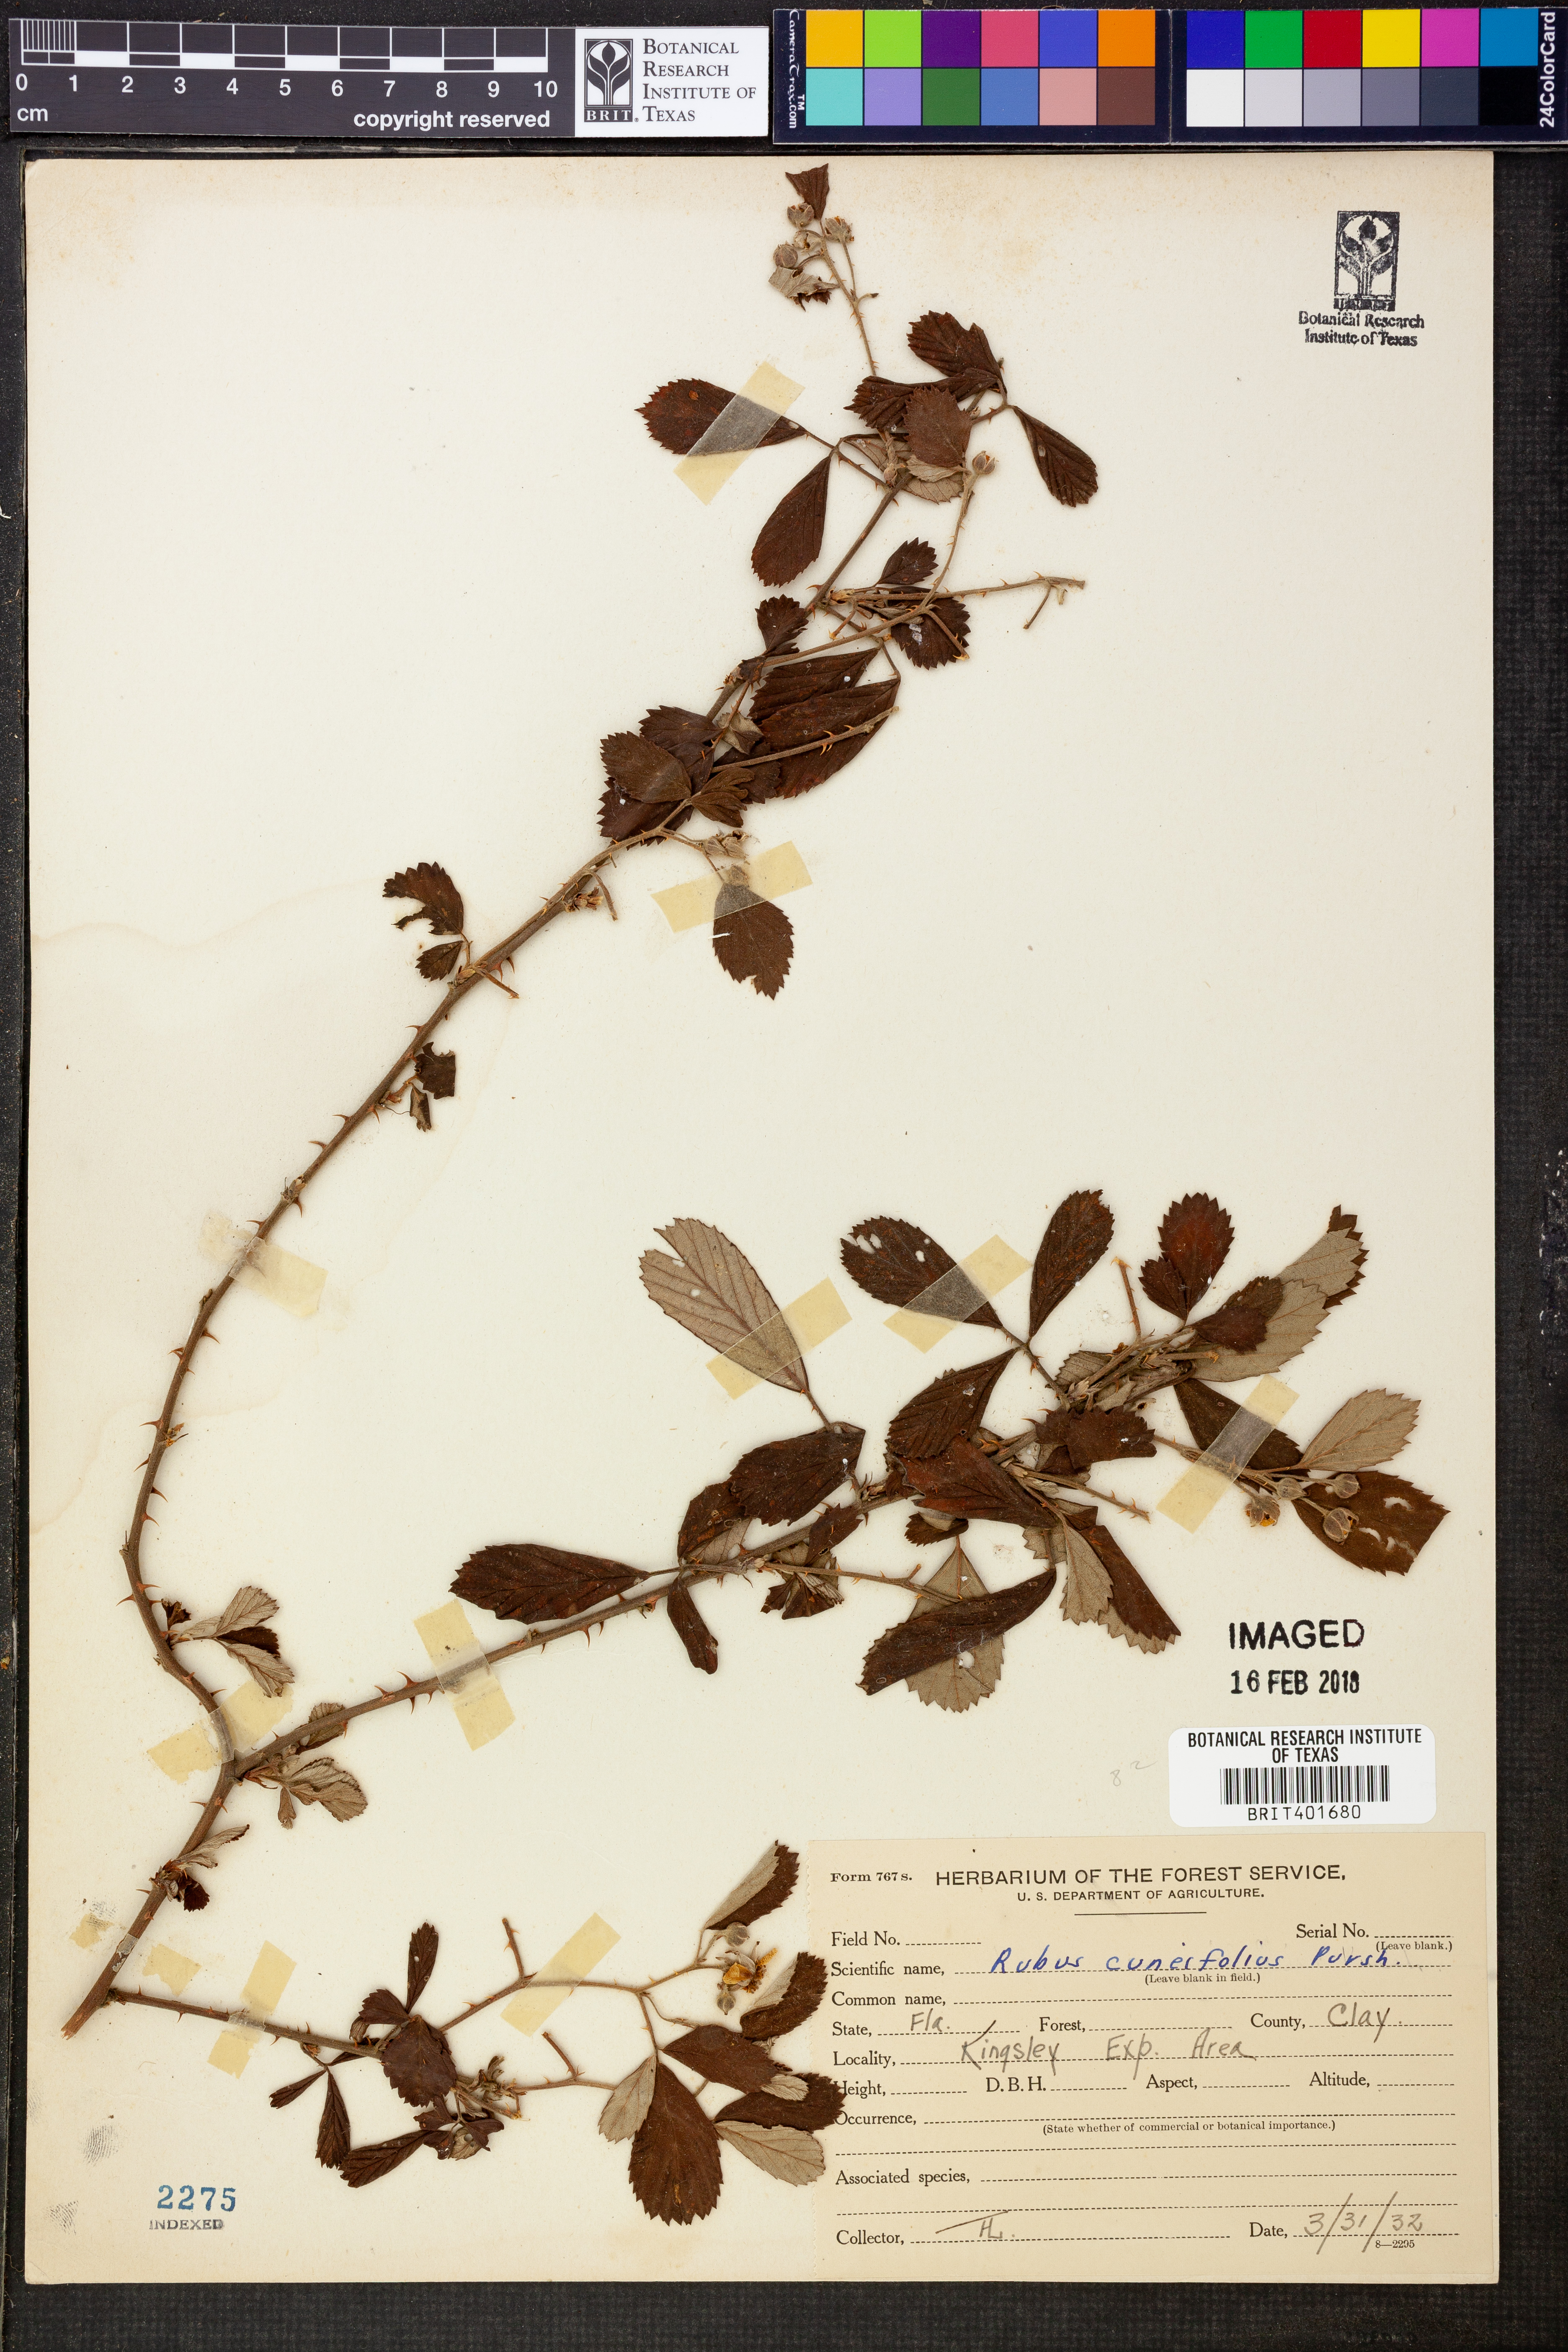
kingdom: Plantae
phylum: Tracheophyta
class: Magnoliopsida
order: Rosales
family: Rosaceae
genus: Rubus
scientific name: Rubus cuneifolius
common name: American bramble
